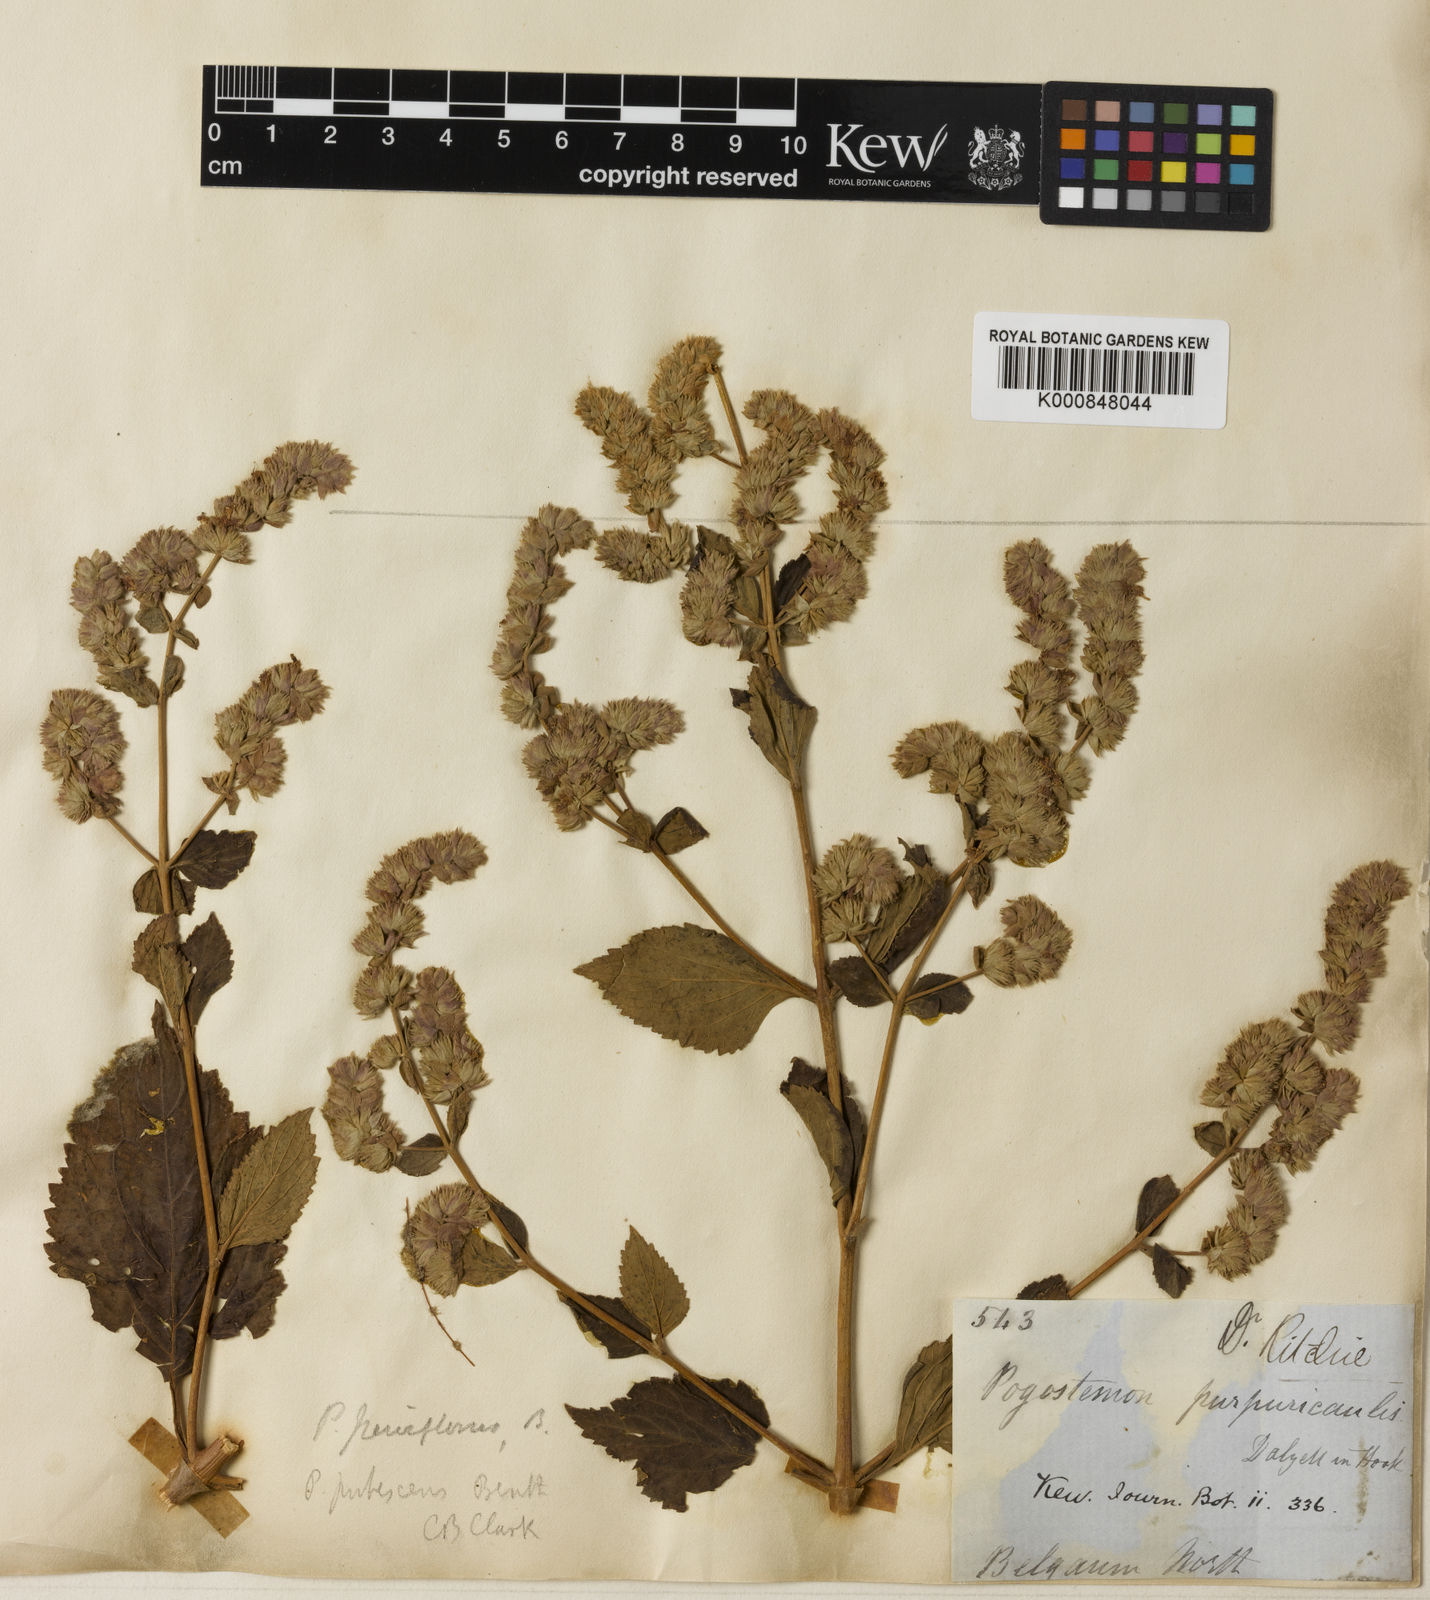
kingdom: Plantae
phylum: Tracheophyta
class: Magnoliopsida
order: Lamiales
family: Lamiaceae
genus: Pogostemon
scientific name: Pogostemon parviflorus
